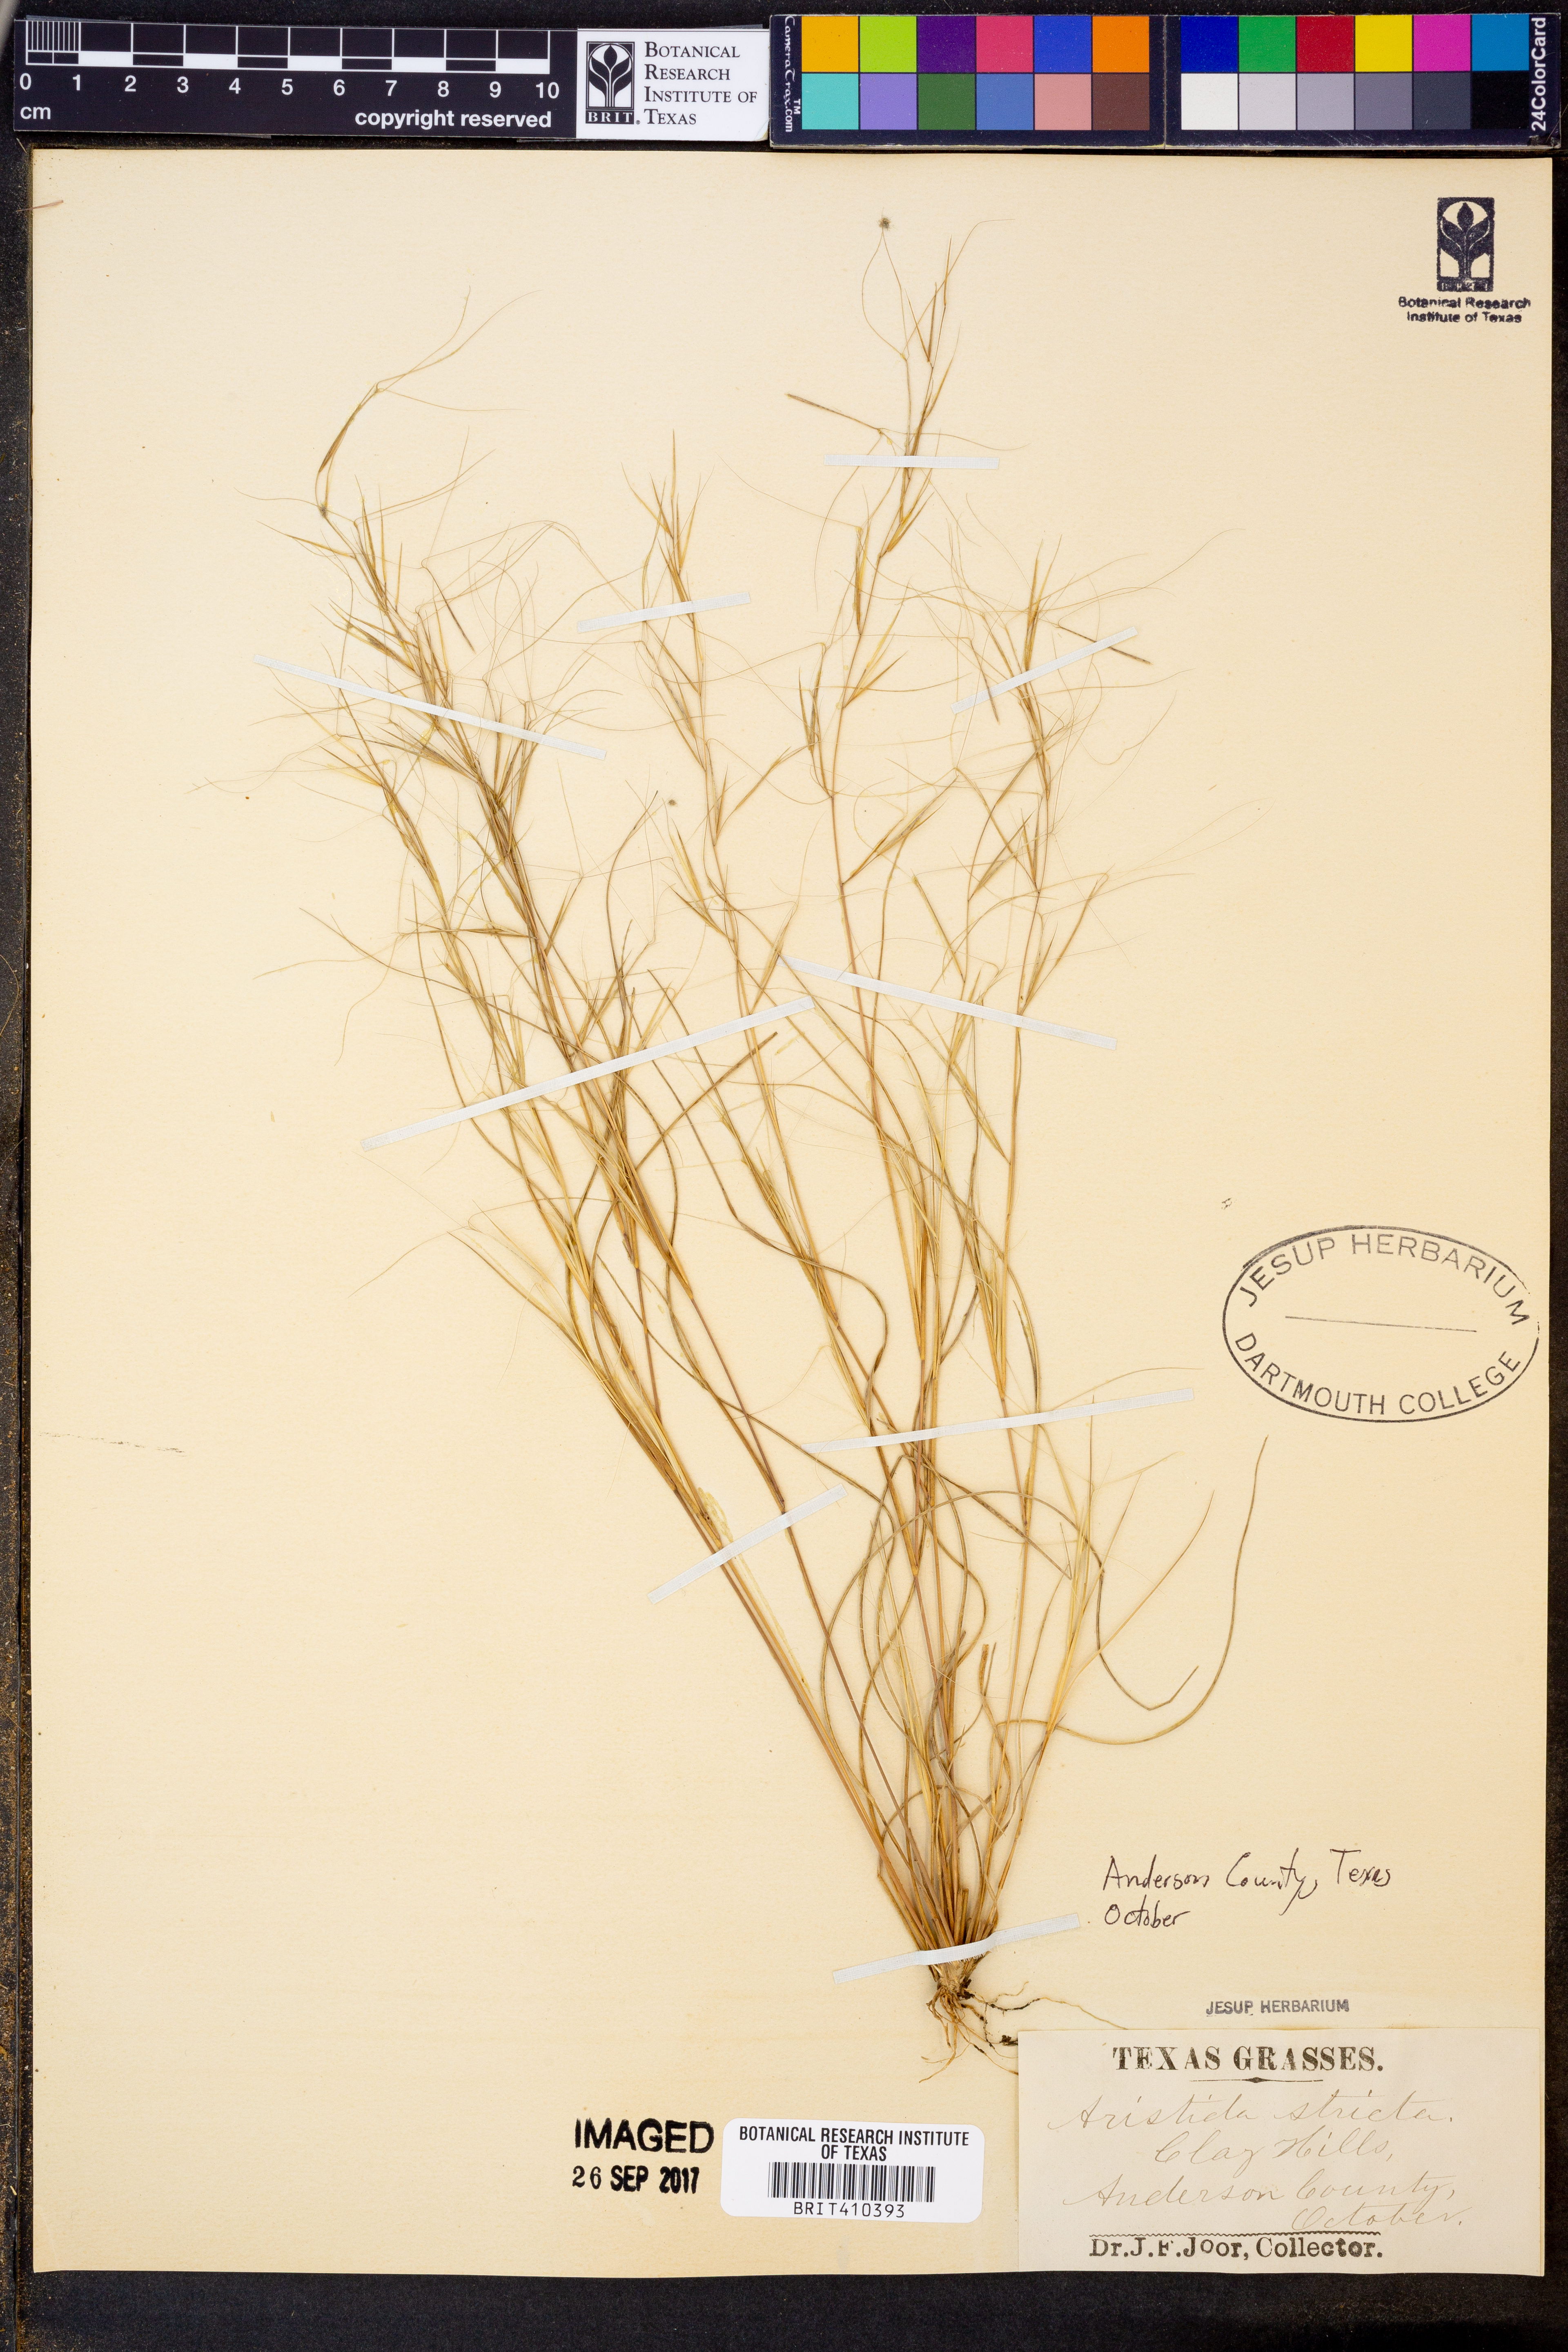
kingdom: Plantae
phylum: Tracheophyta
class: Liliopsida
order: Poales
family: Poaceae
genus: Aristida
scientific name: Aristida stricta
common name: Pineland three-awn
